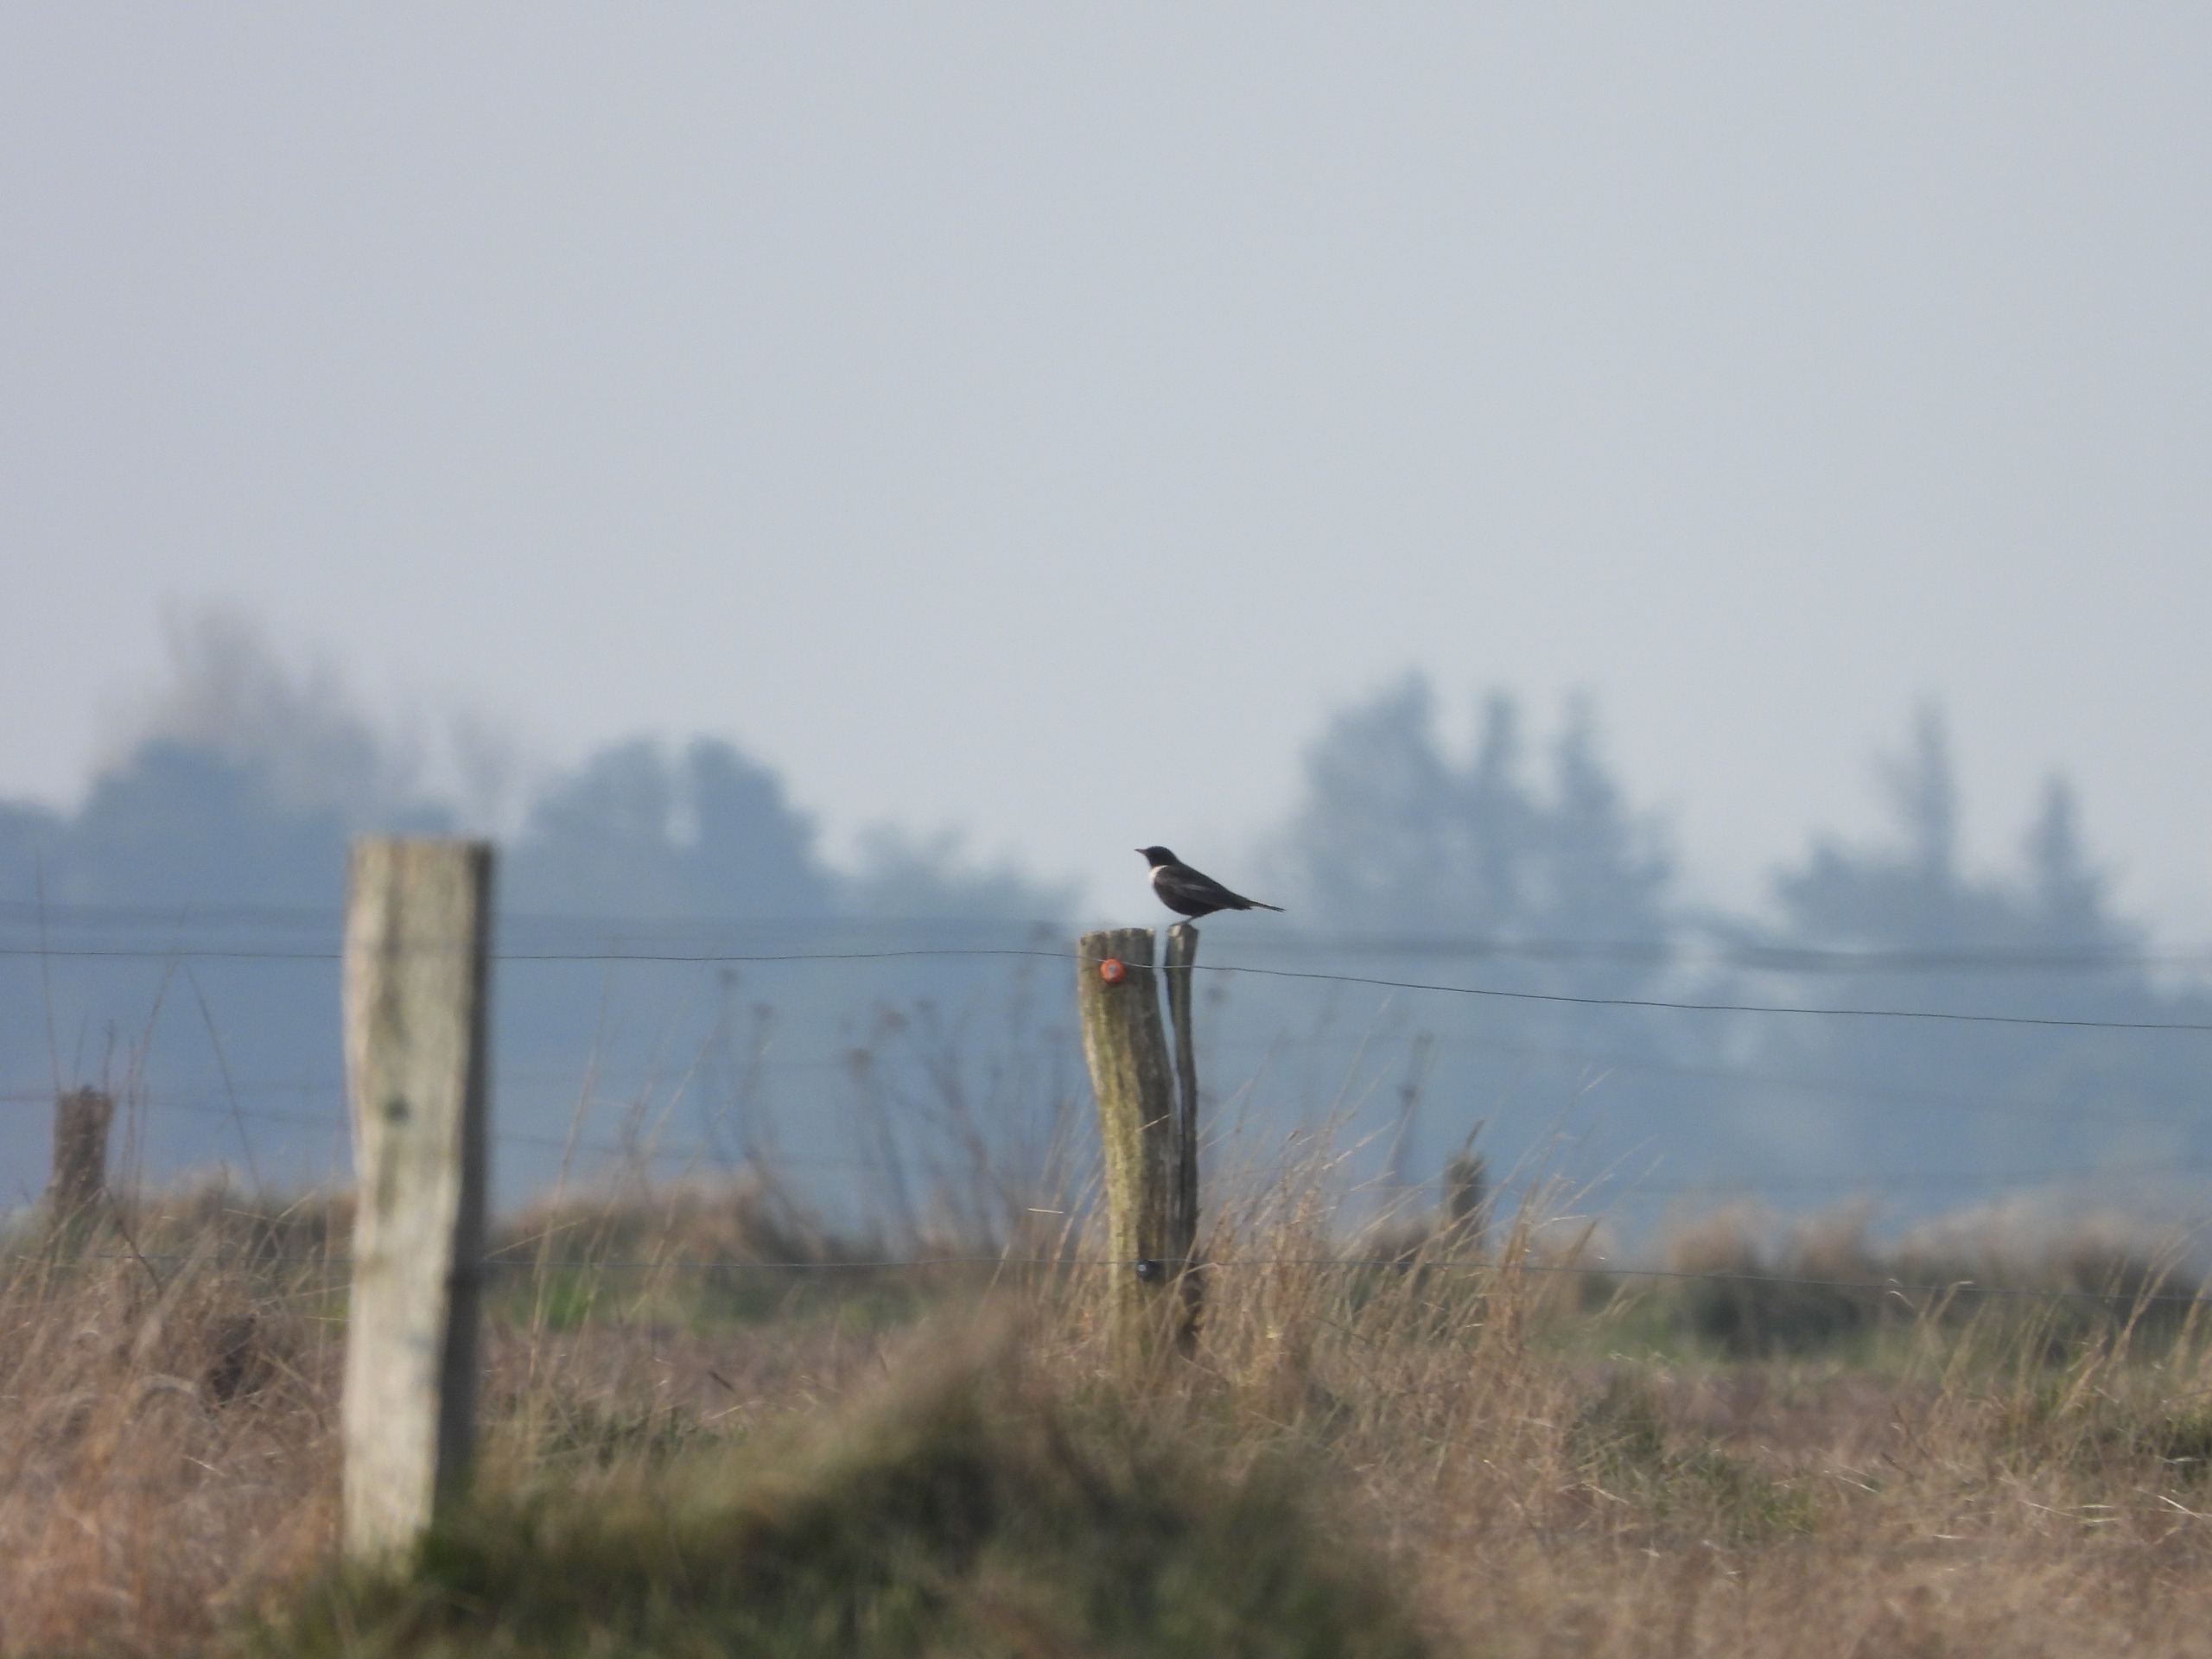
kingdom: Animalia
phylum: Chordata
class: Aves
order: Passeriformes
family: Turdidae
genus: Turdus
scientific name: Turdus torquatus
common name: Ringdrossel
